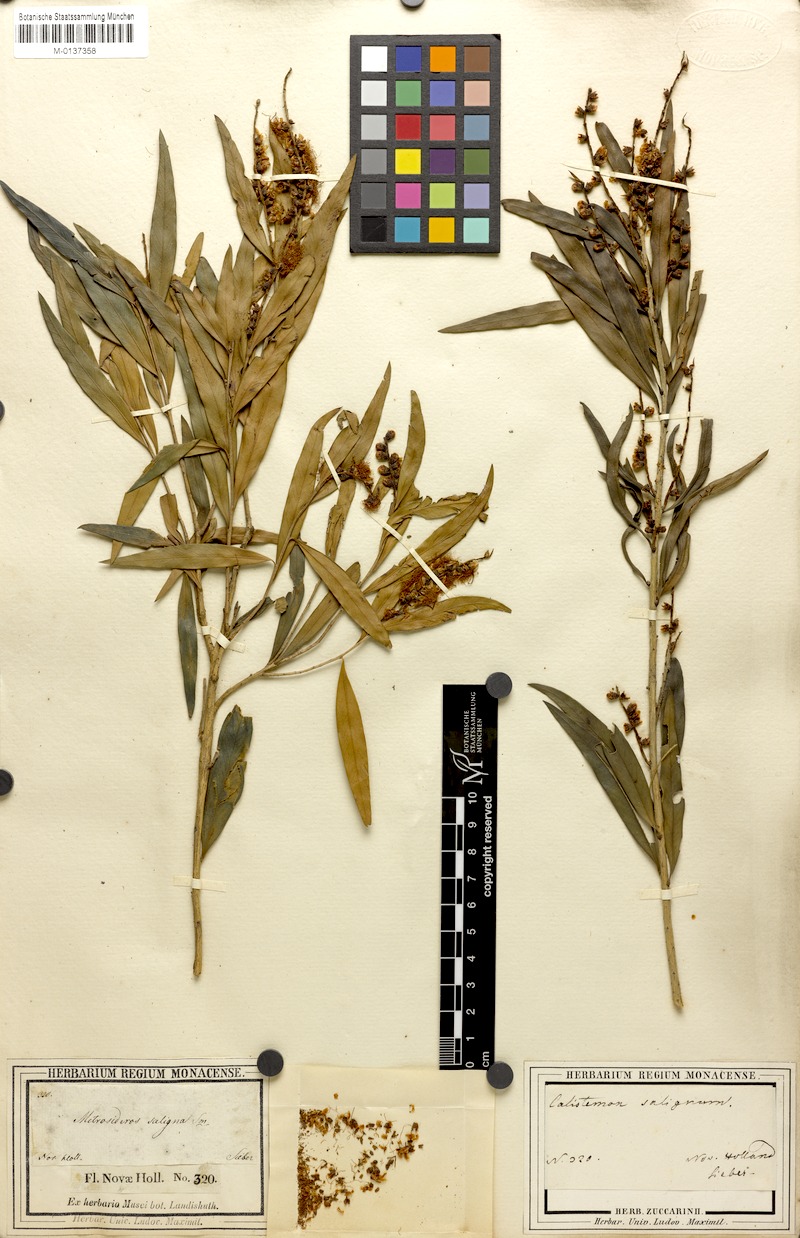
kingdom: Plantae
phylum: Tracheophyta
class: Magnoliopsida
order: Myrtales
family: Myrtaceae
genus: Callistemon
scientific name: Callistemon salignus
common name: White bottlebrush
